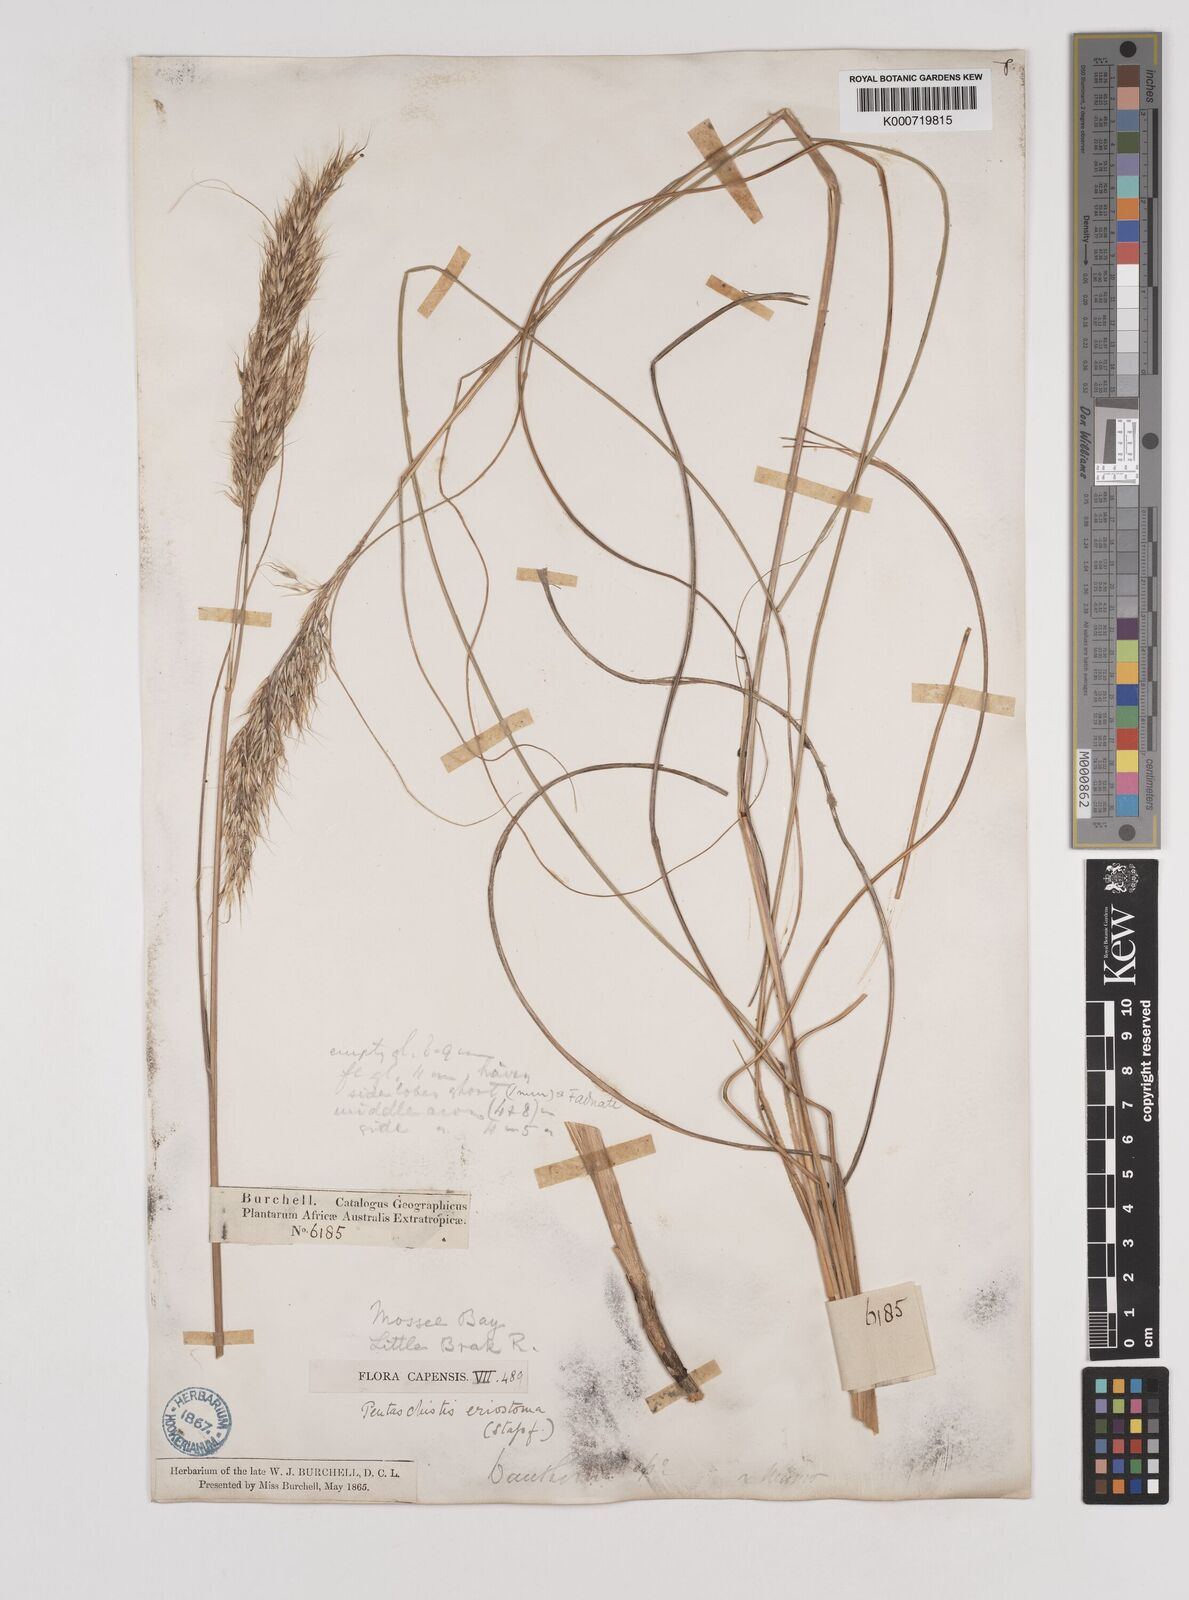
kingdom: Plantae
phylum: Tracheophyta
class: Liliopsida
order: Poales
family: Poaceae
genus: Pentameris
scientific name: Pentameris eriostoma
